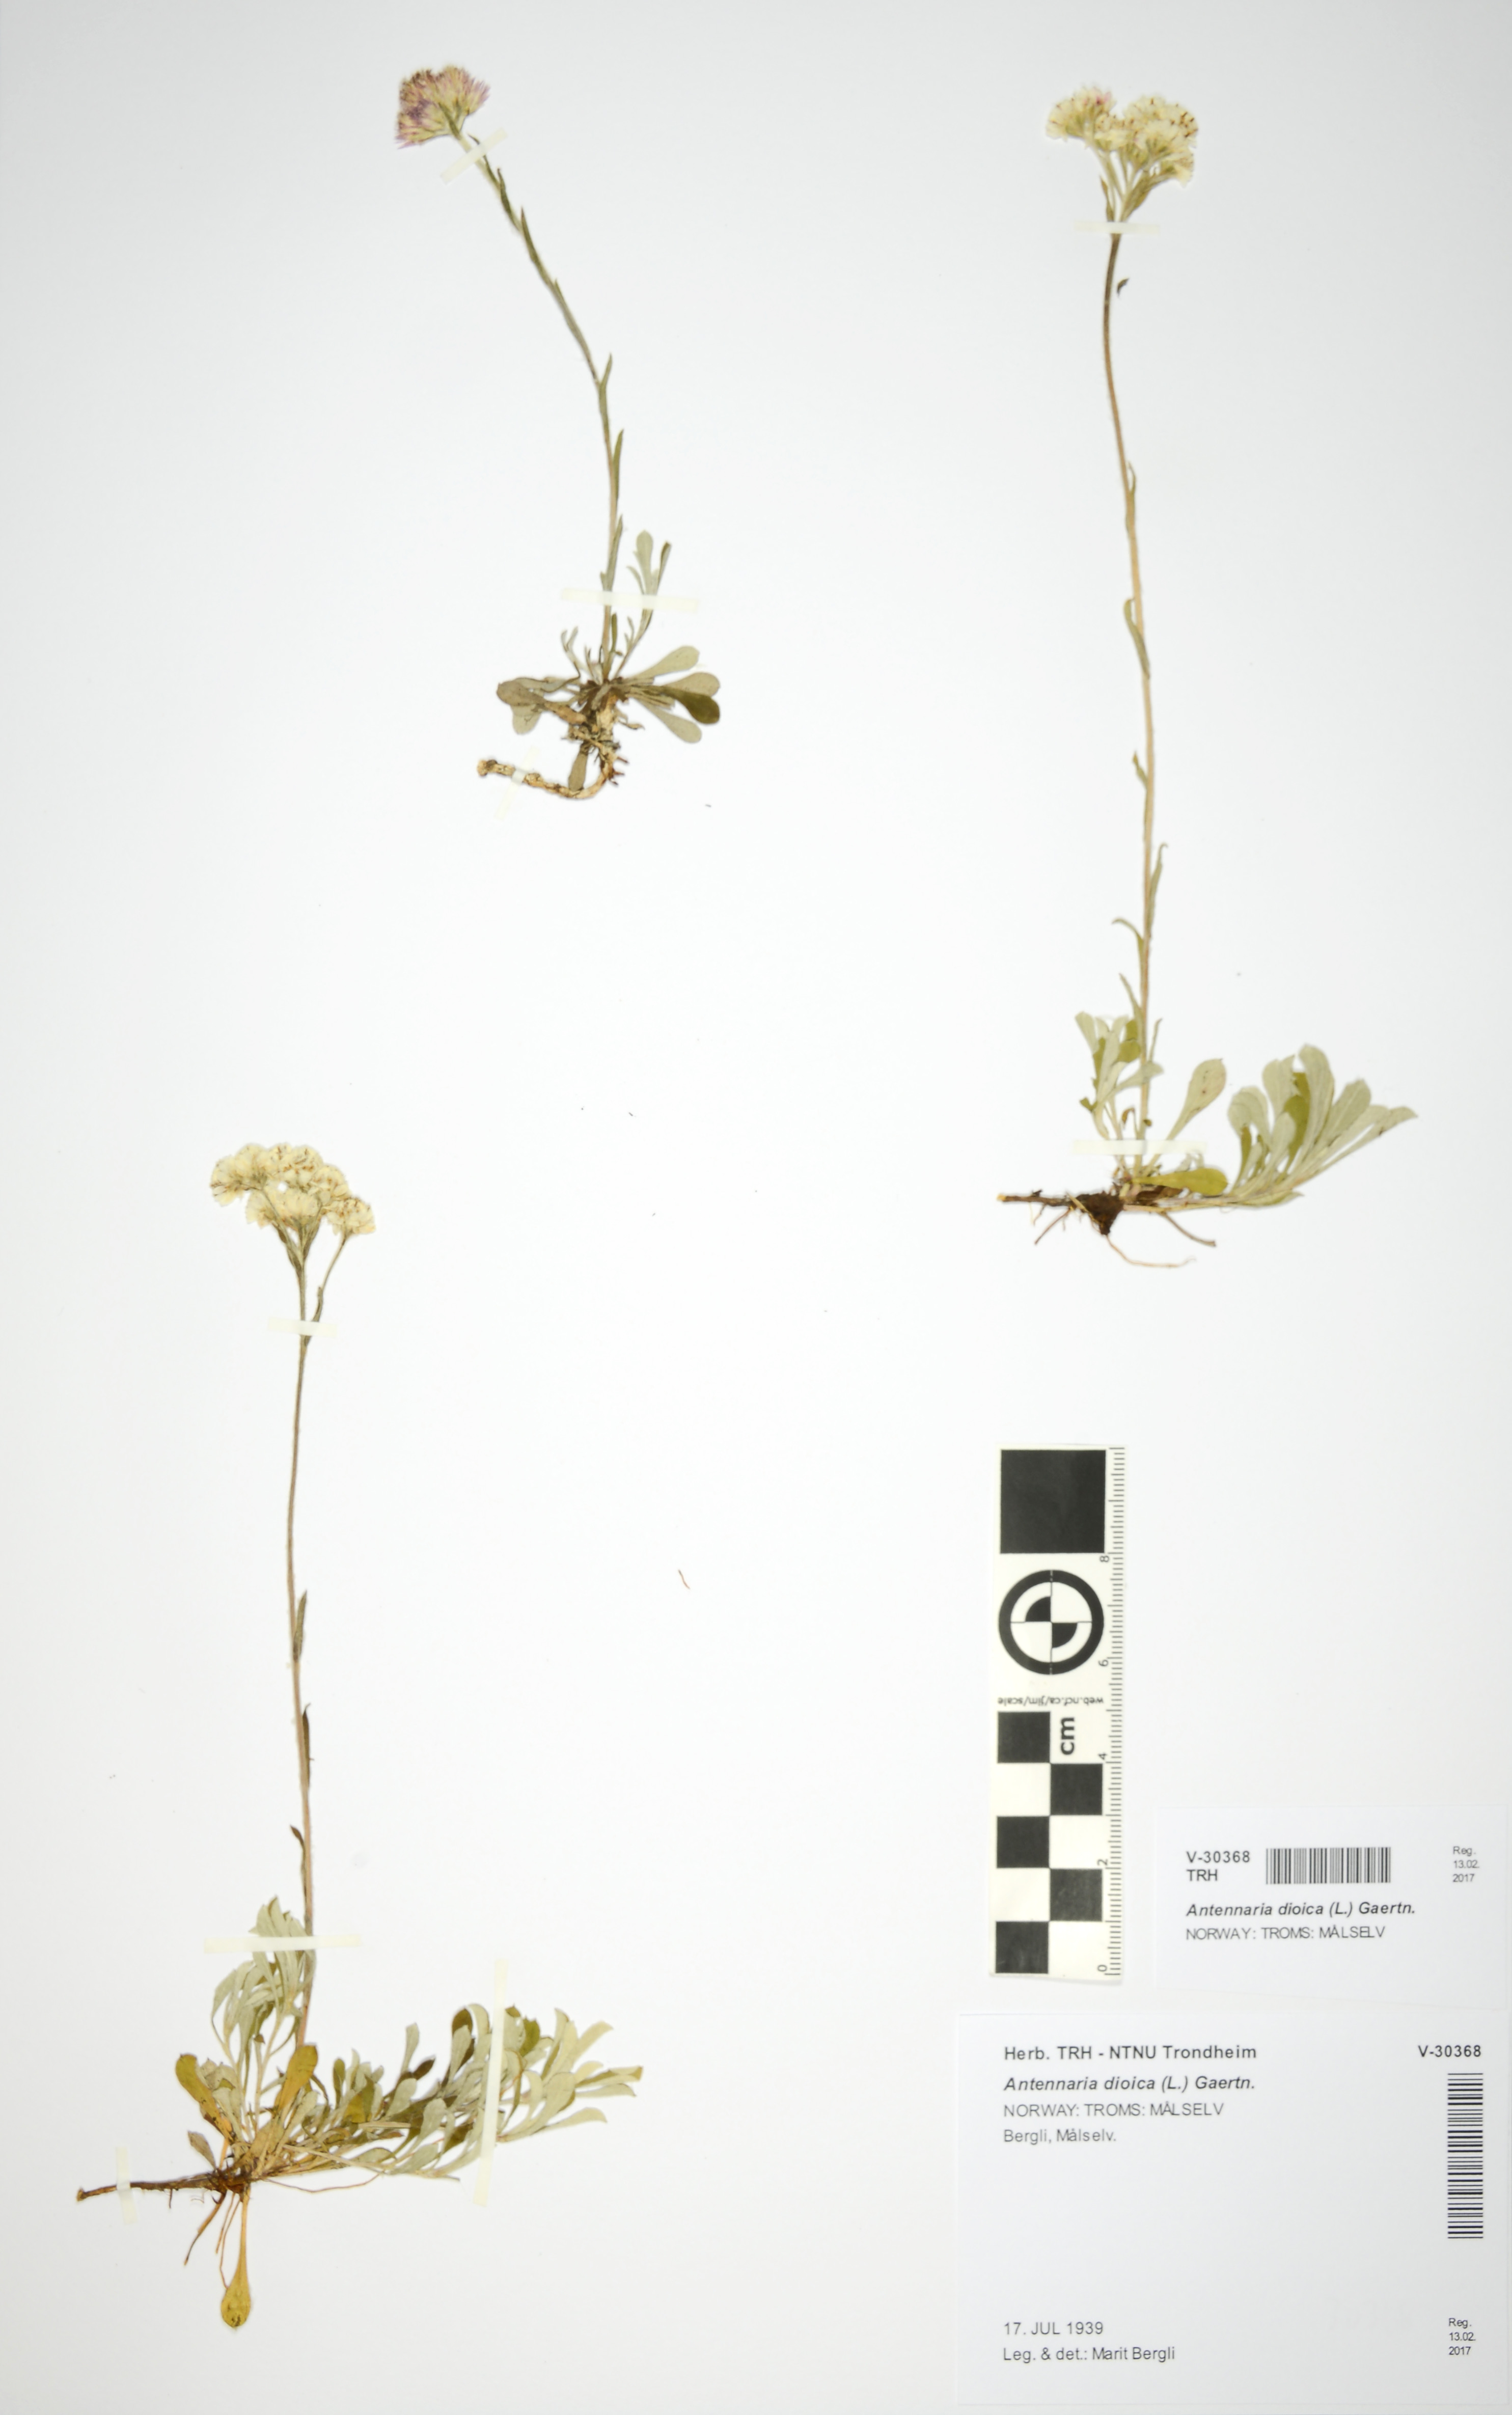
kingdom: Plantae
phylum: Tracheophyta
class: Magnoliopsida
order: Asterales
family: Asteraceae
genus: Antennaria
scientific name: Antennaria dioica
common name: Mountain everlasting
